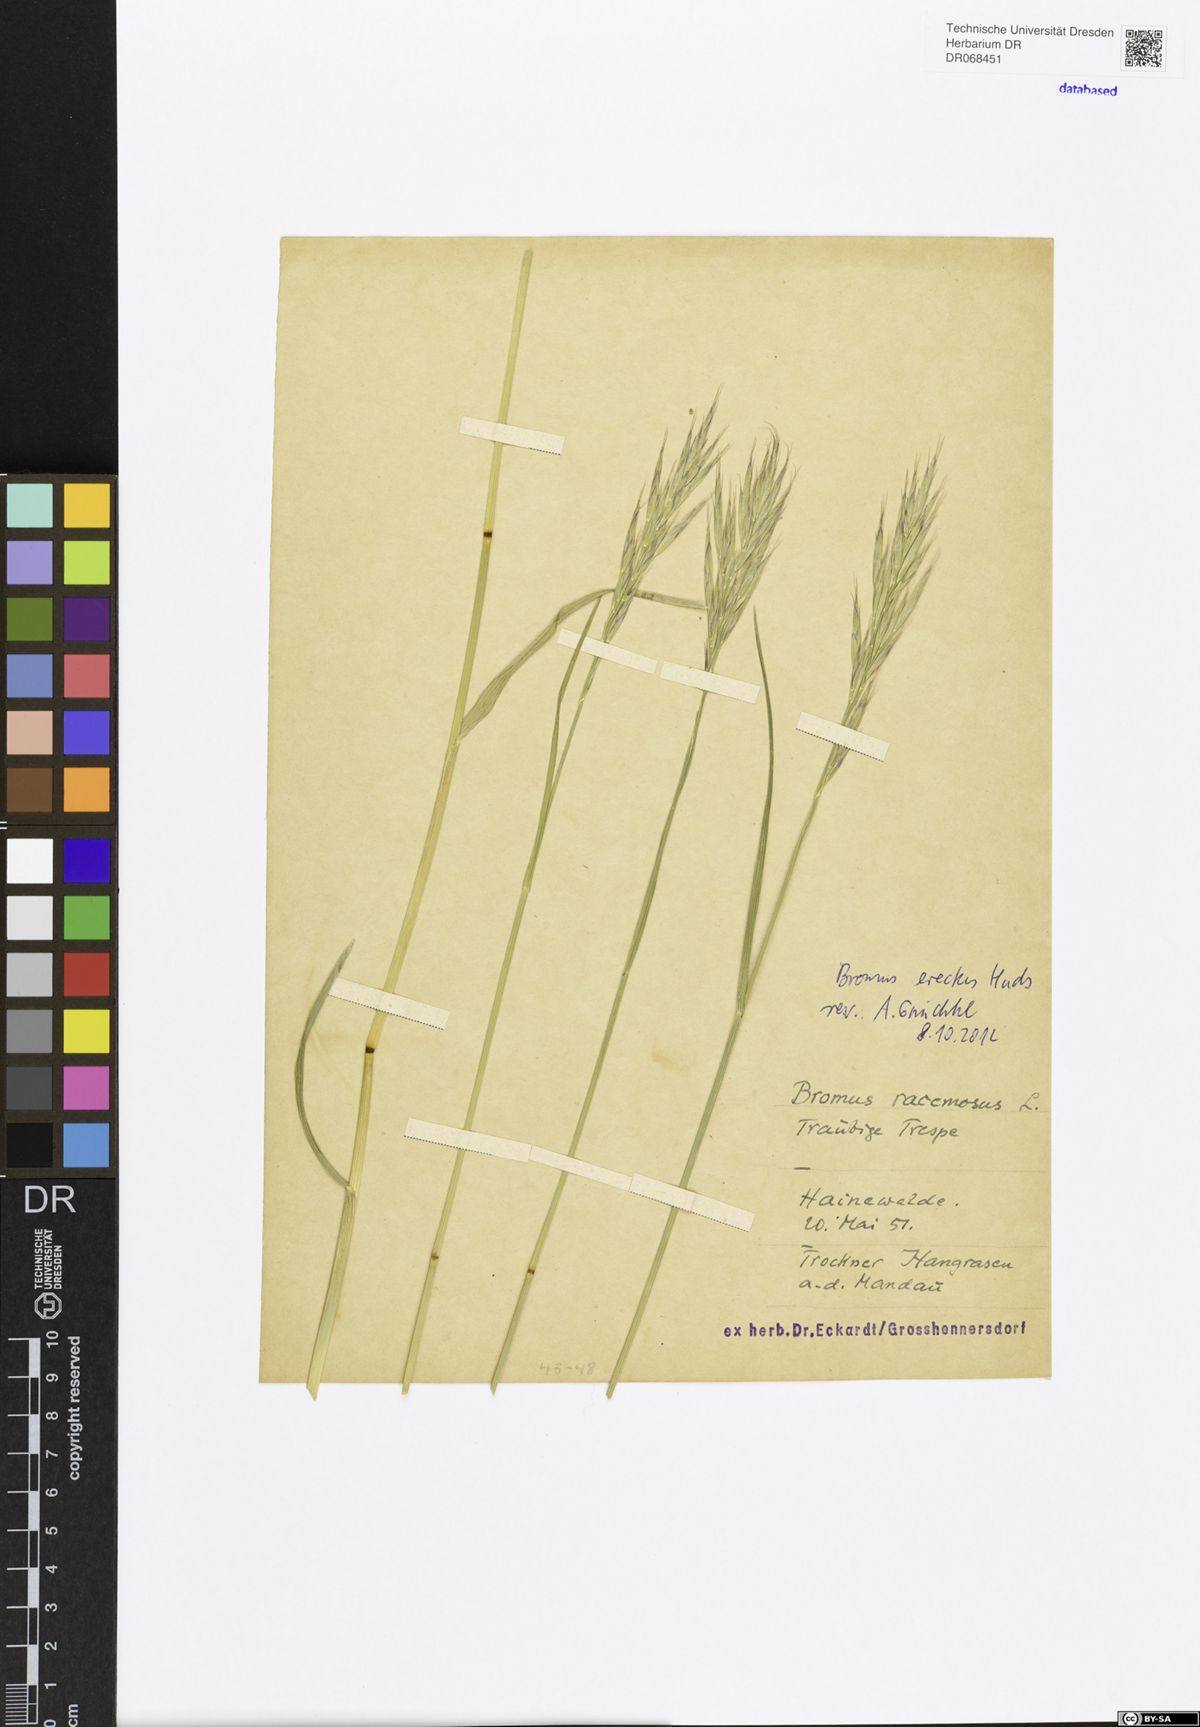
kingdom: Plantae
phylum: Tracheophyta
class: Liliopsida
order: Poales
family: Poaceae
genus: Bromus
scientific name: Bromus erectus
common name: Erect brome
